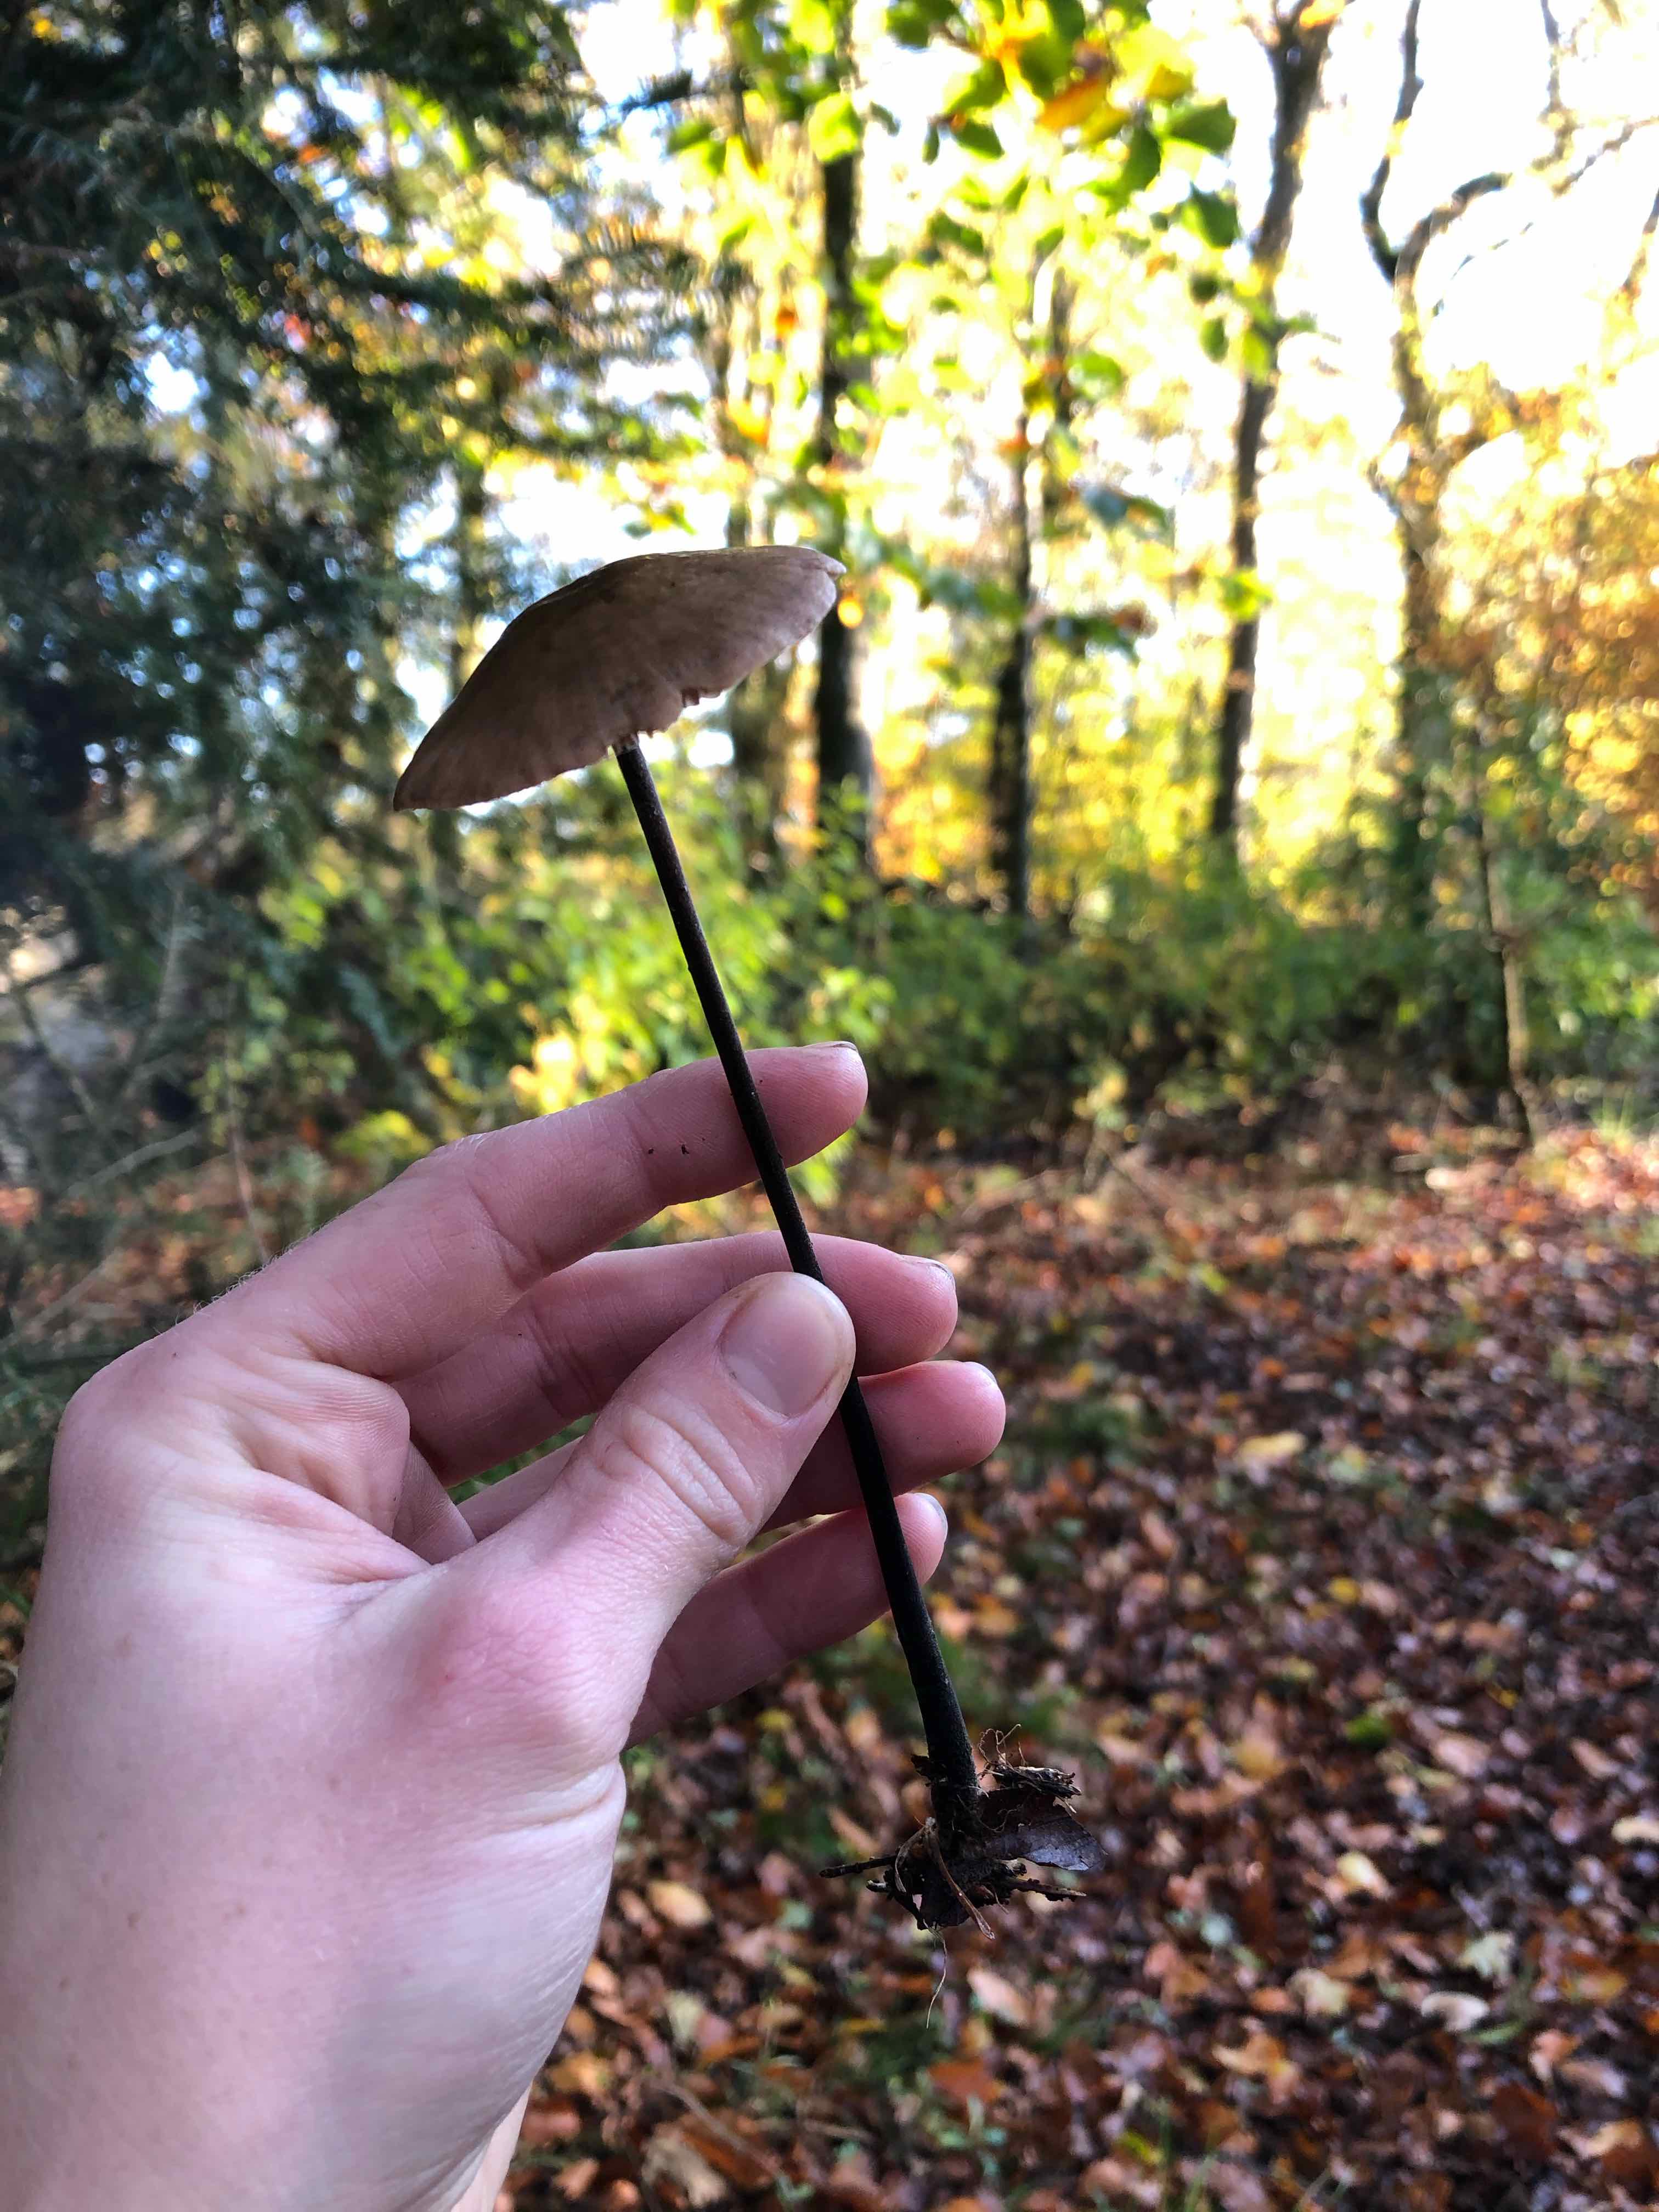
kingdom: Fungi
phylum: Basidiomycota
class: Agaricomycetes
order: Agaricales
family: Omphalotaceae
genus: Mycetinis
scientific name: Mycetinis alliaceus
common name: stor løghat
